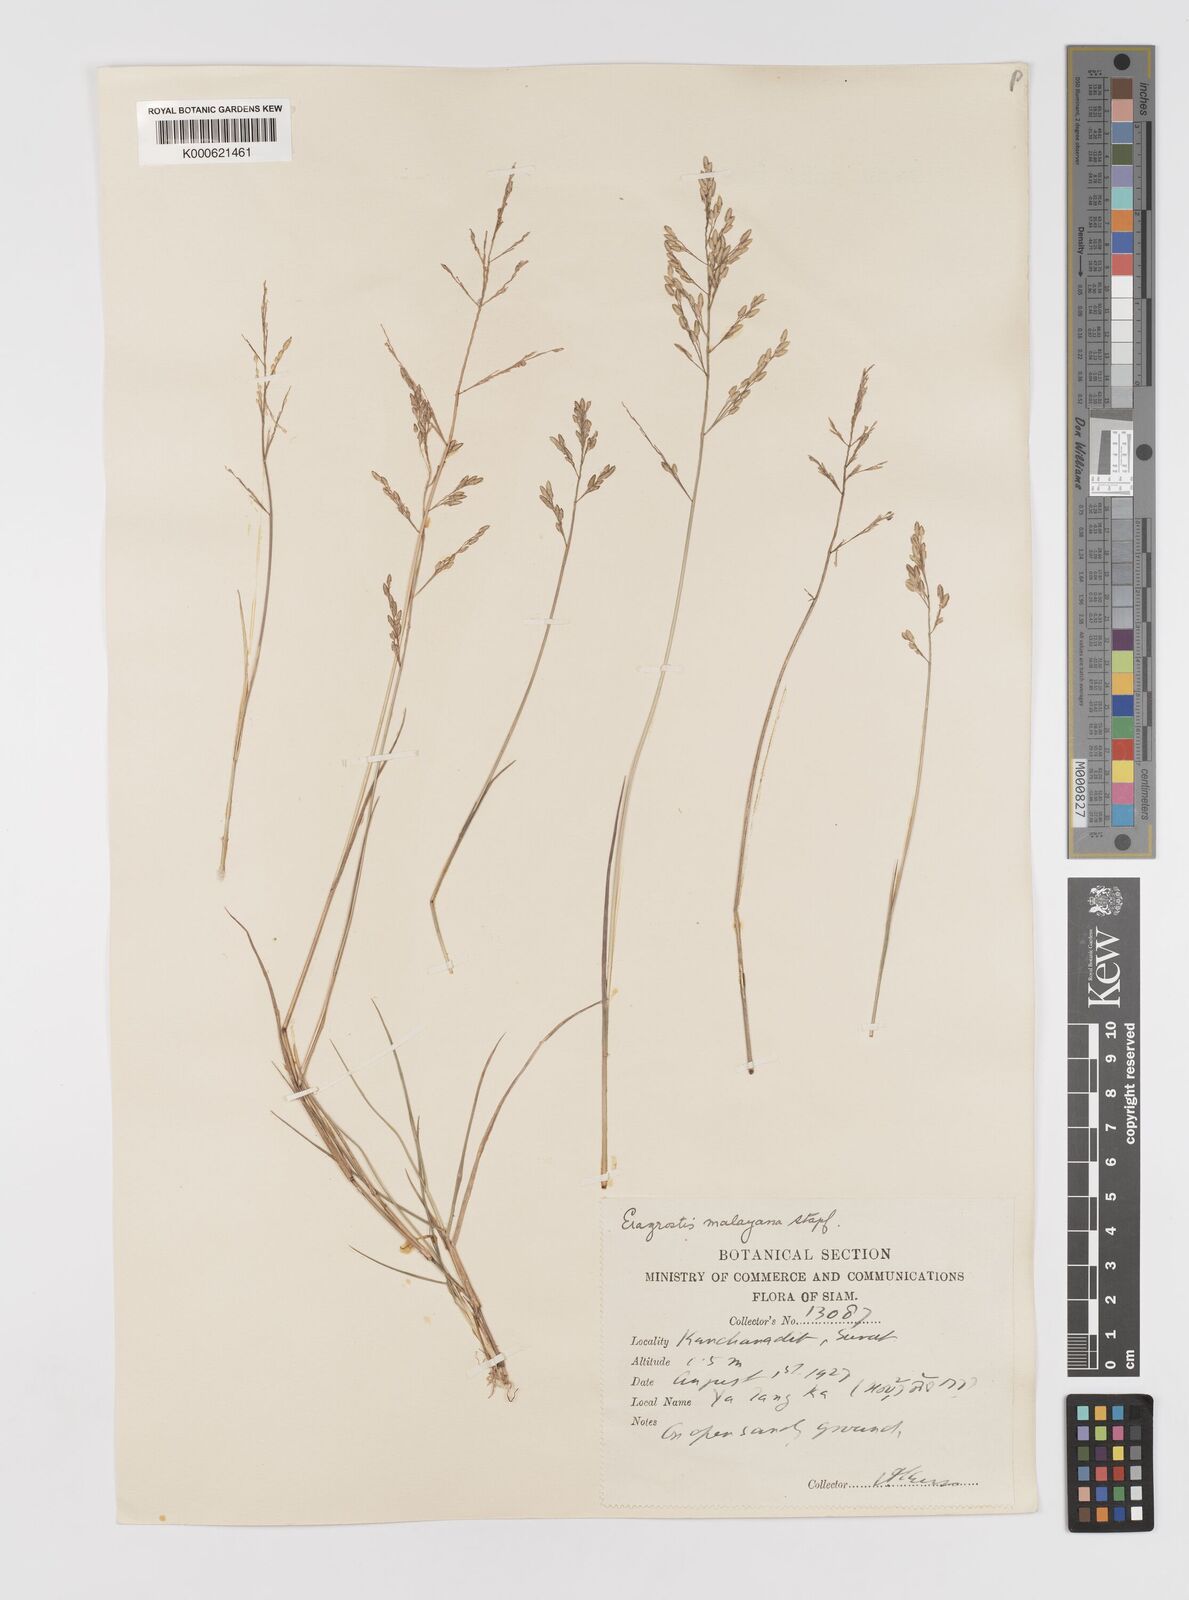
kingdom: Plantae
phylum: Tracheophyta
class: Liliopsida
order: Poales
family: Poaceae
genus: Eragrostis
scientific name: Eragrostis montana
